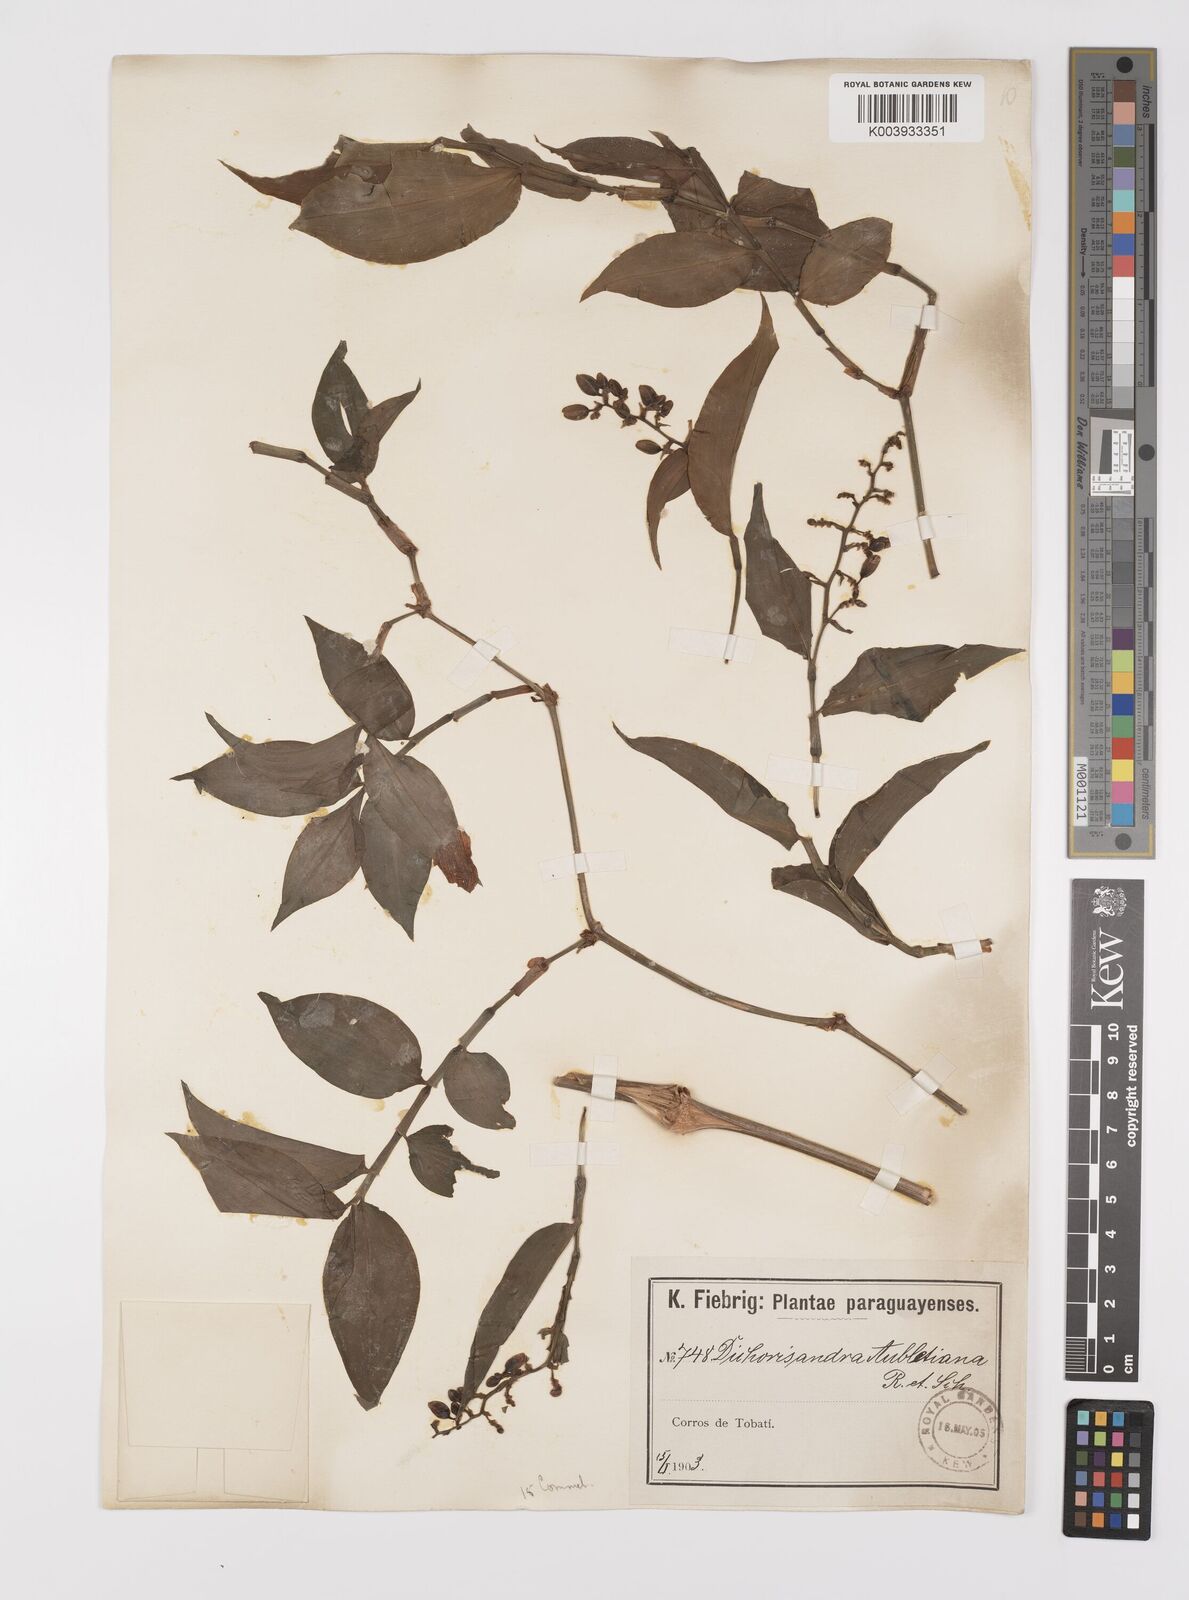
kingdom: Plantae
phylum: Tracheophyta
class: Liliopsida
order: Commelinales
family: Commelinaceae
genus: Dichorisandra
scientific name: Dichorisandra hexandra
